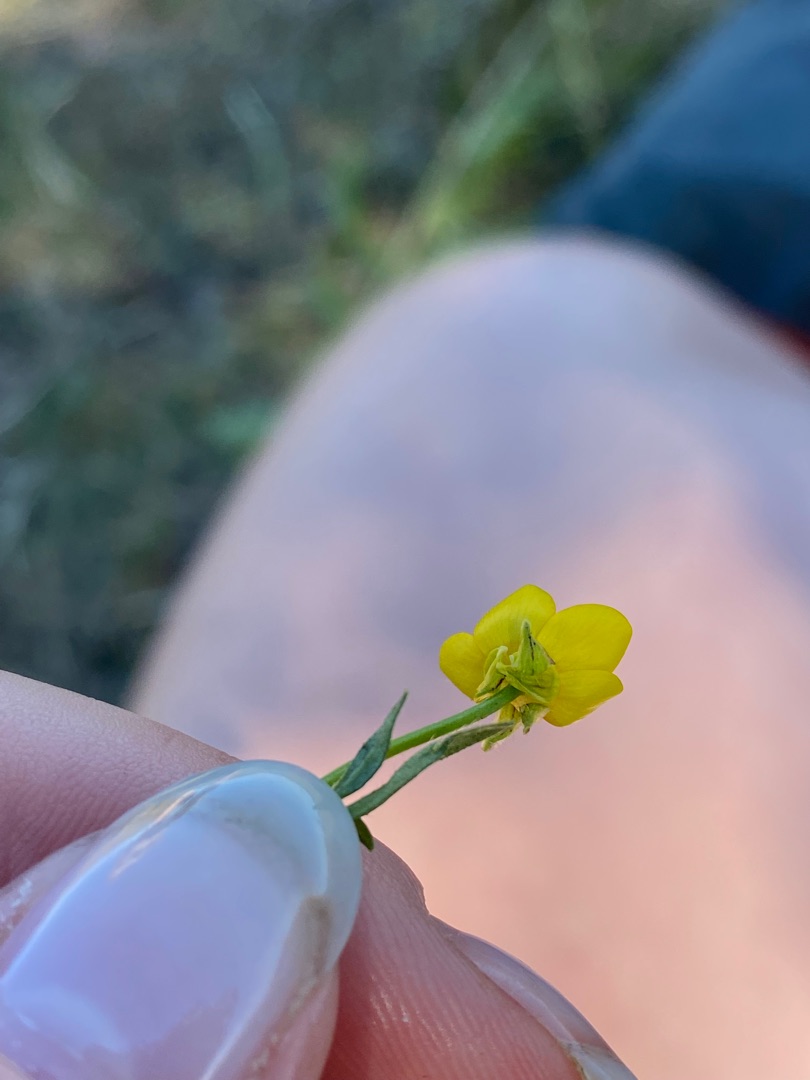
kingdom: Plantae
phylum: Tracheophyta
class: Magnoliopsida
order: Ranunculales
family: Ranunculaceae
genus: Ranunculus
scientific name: Ranunculus sardous
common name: Stivhåret ranunkel
